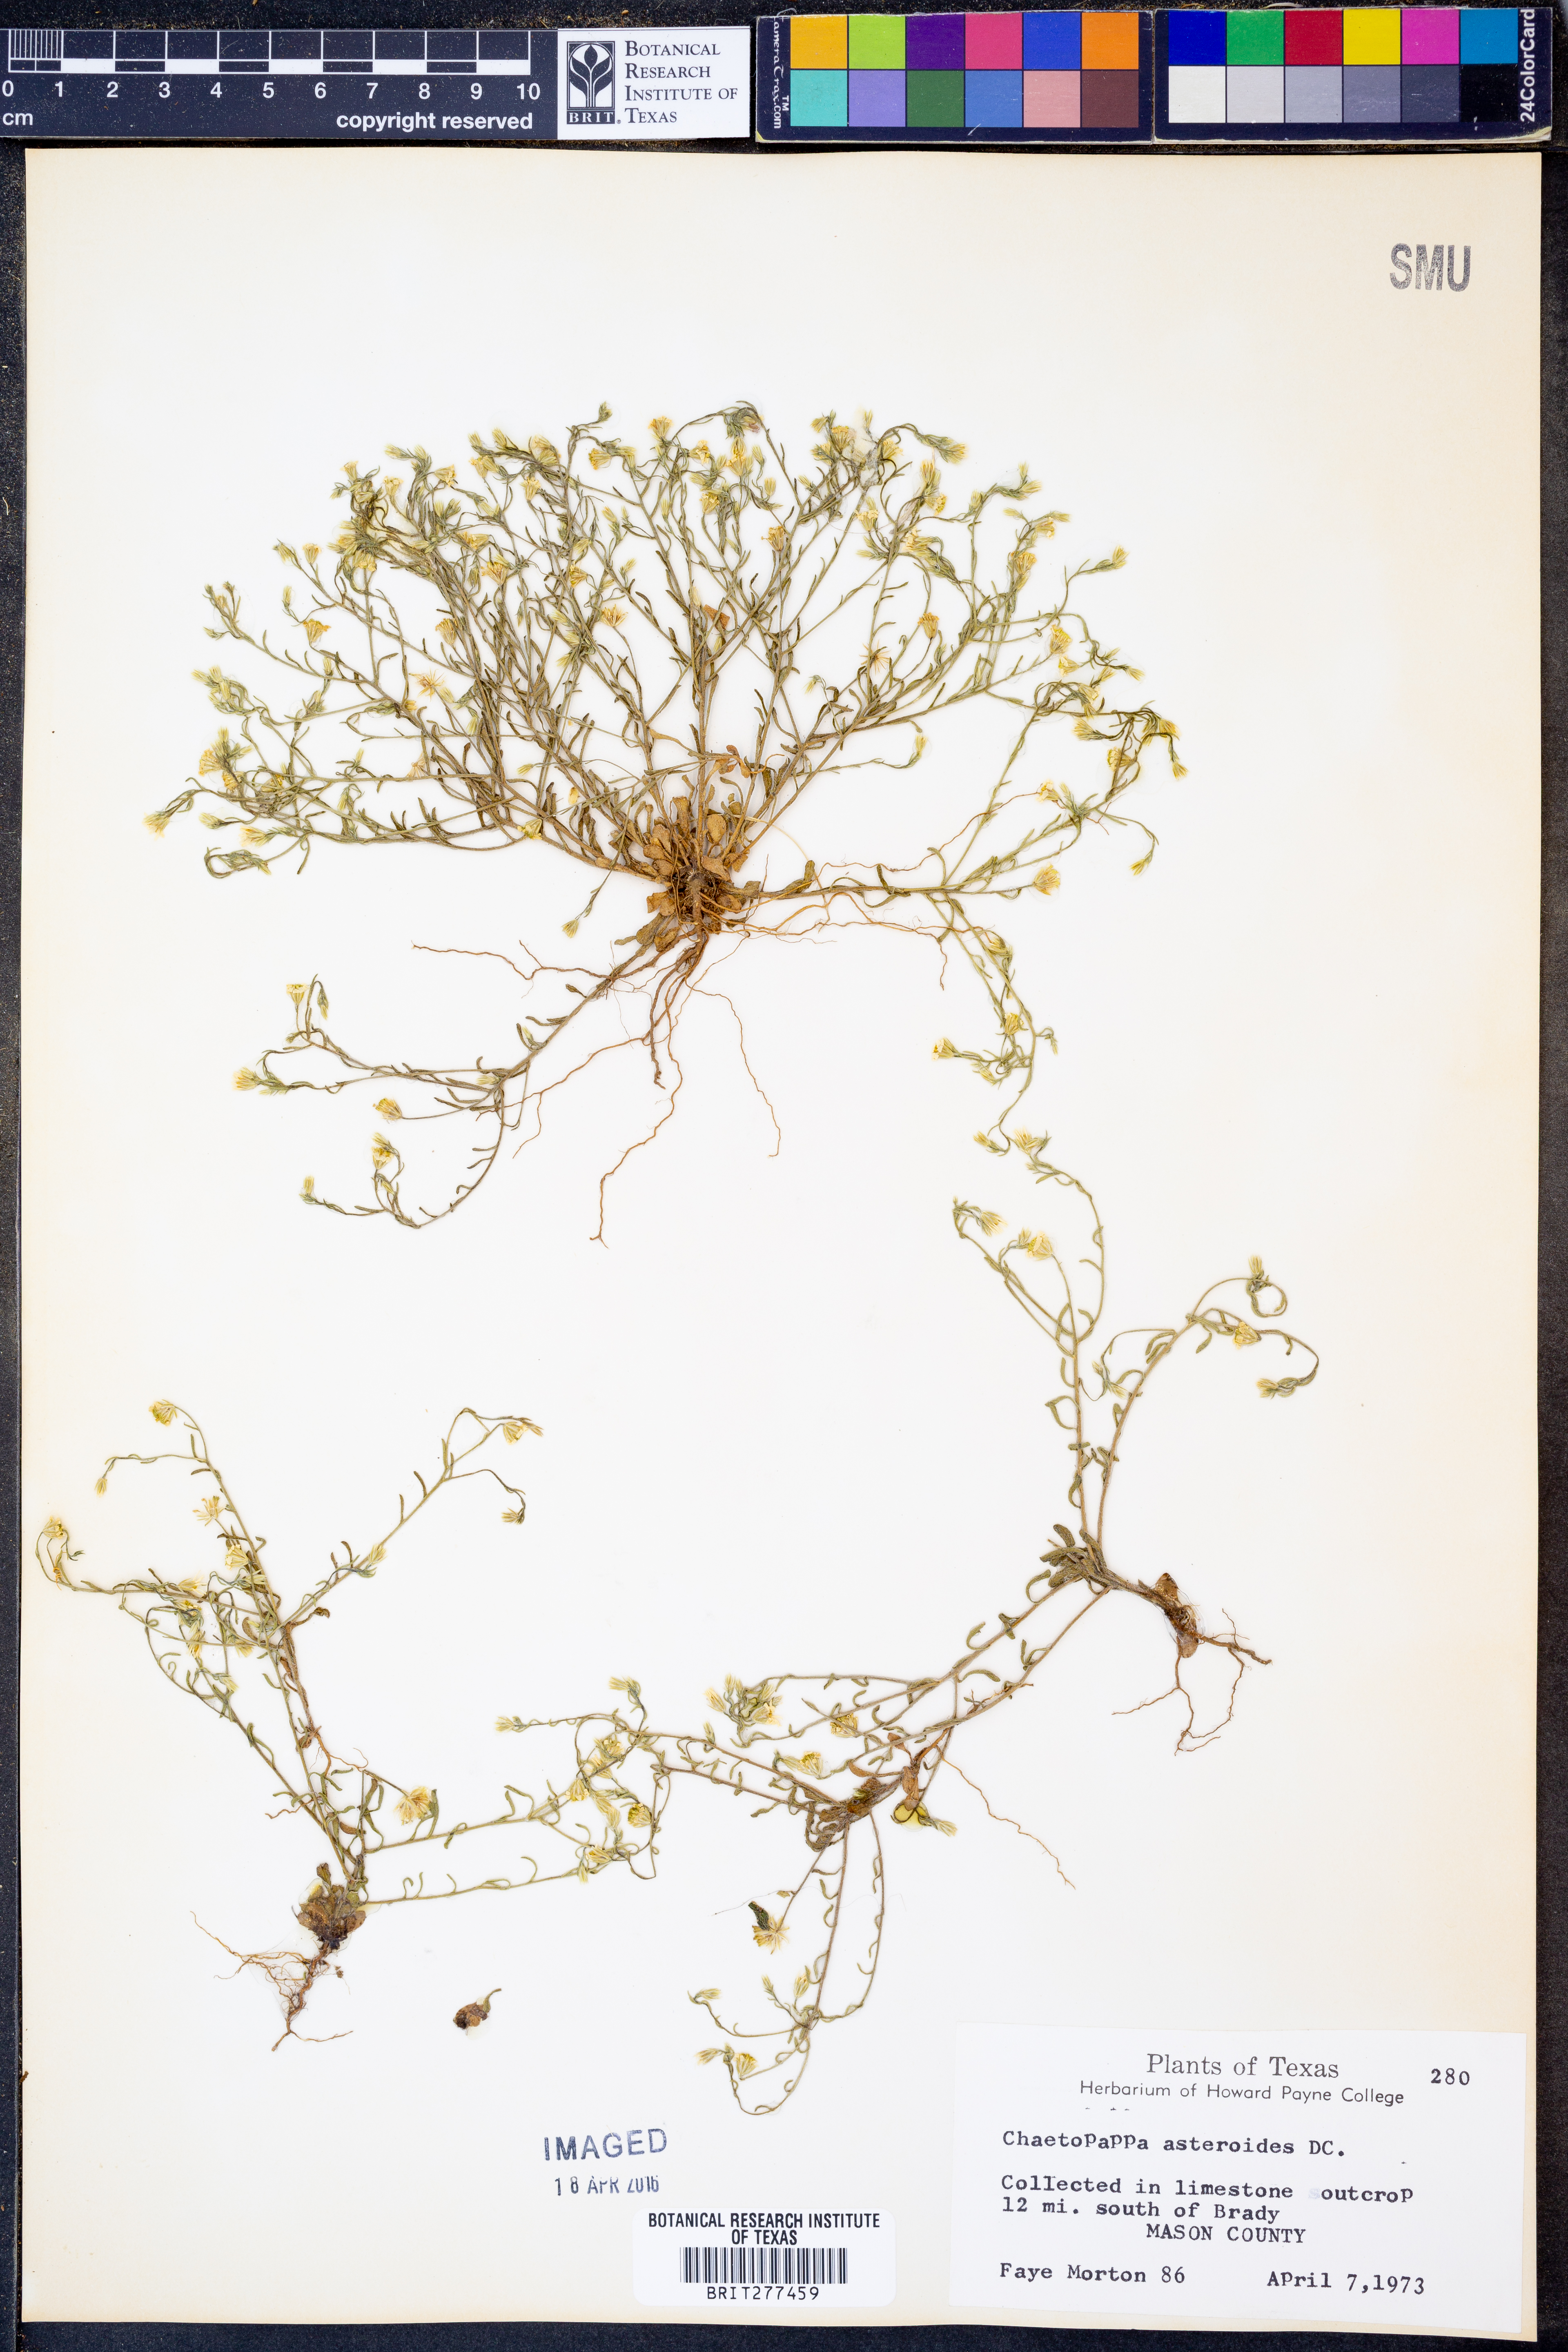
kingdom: Plantae
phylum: Tracheophyta
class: Magnoliopsida
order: Asterales
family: Asteraceae
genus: Chaetopappa
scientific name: Chaetopappa asteroides
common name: Tiny lazy daisy
